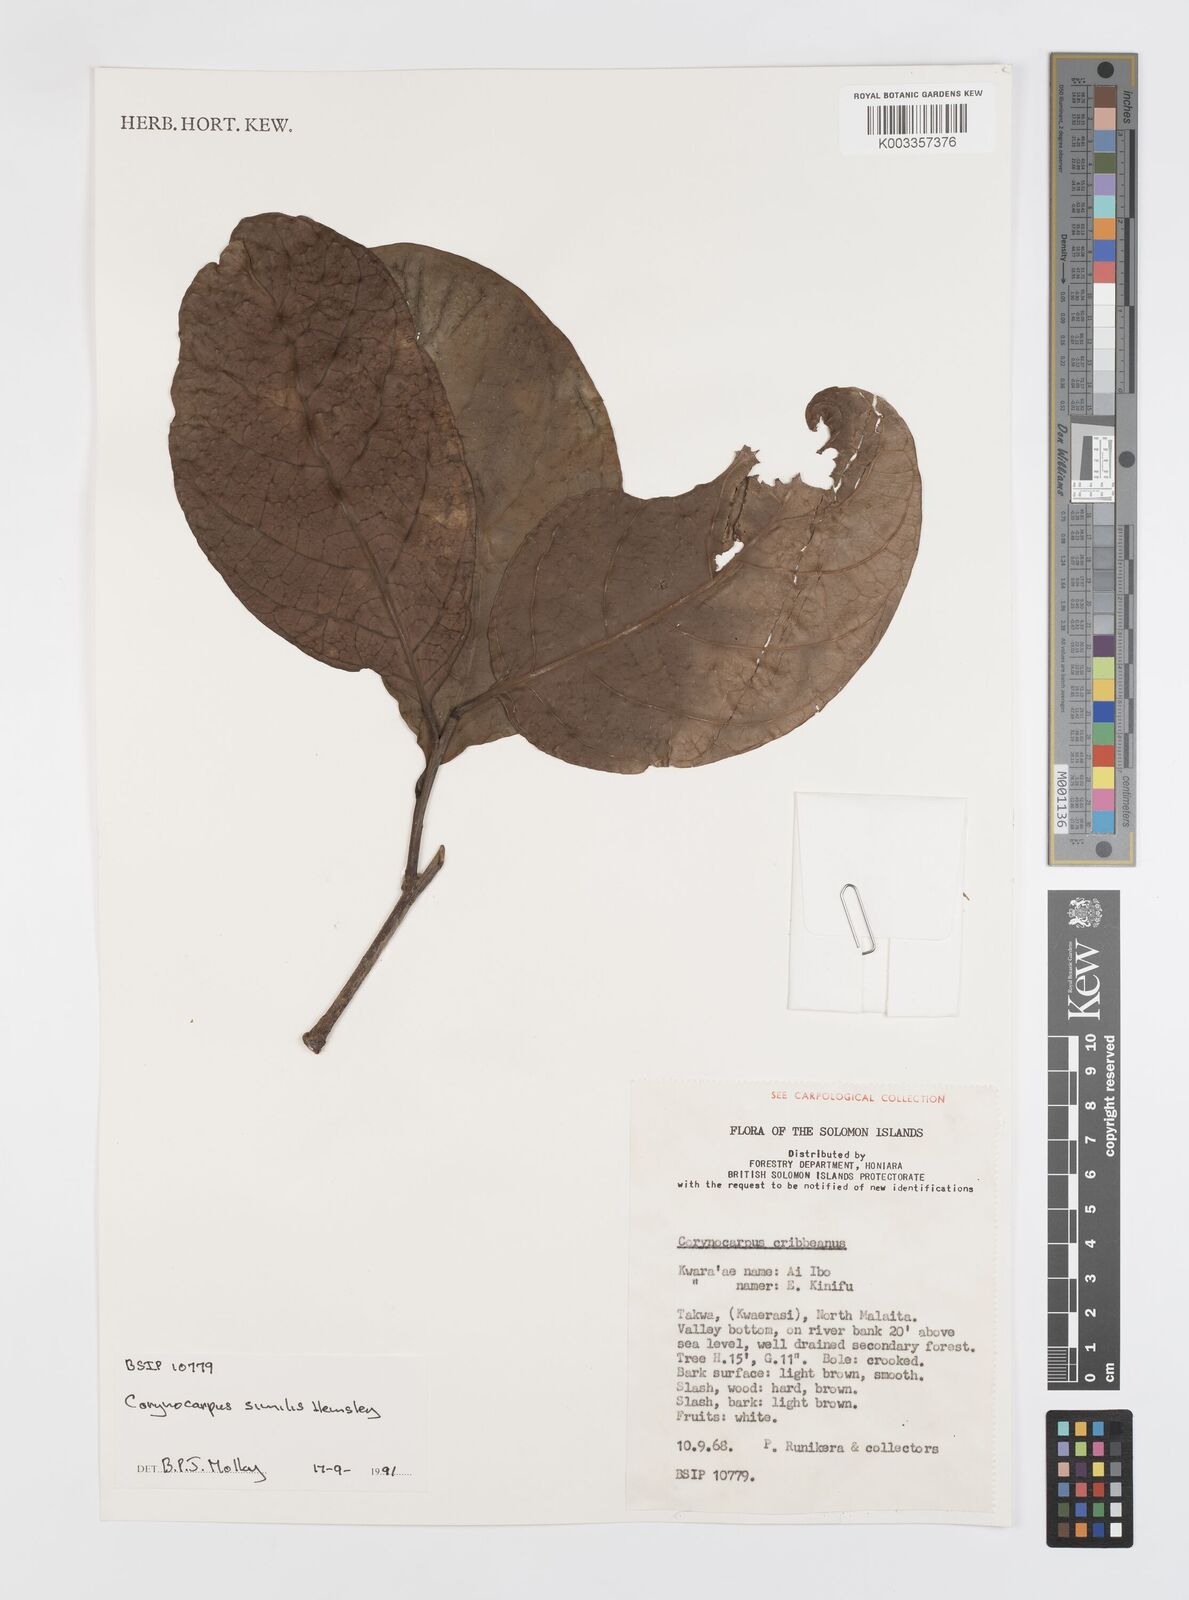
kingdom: Plantae
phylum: Tracheophyta
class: Magnoliopsida
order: Cucurbitales
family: Corynocarpaceae
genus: Corynocarpus
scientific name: Corynocarpus similis
